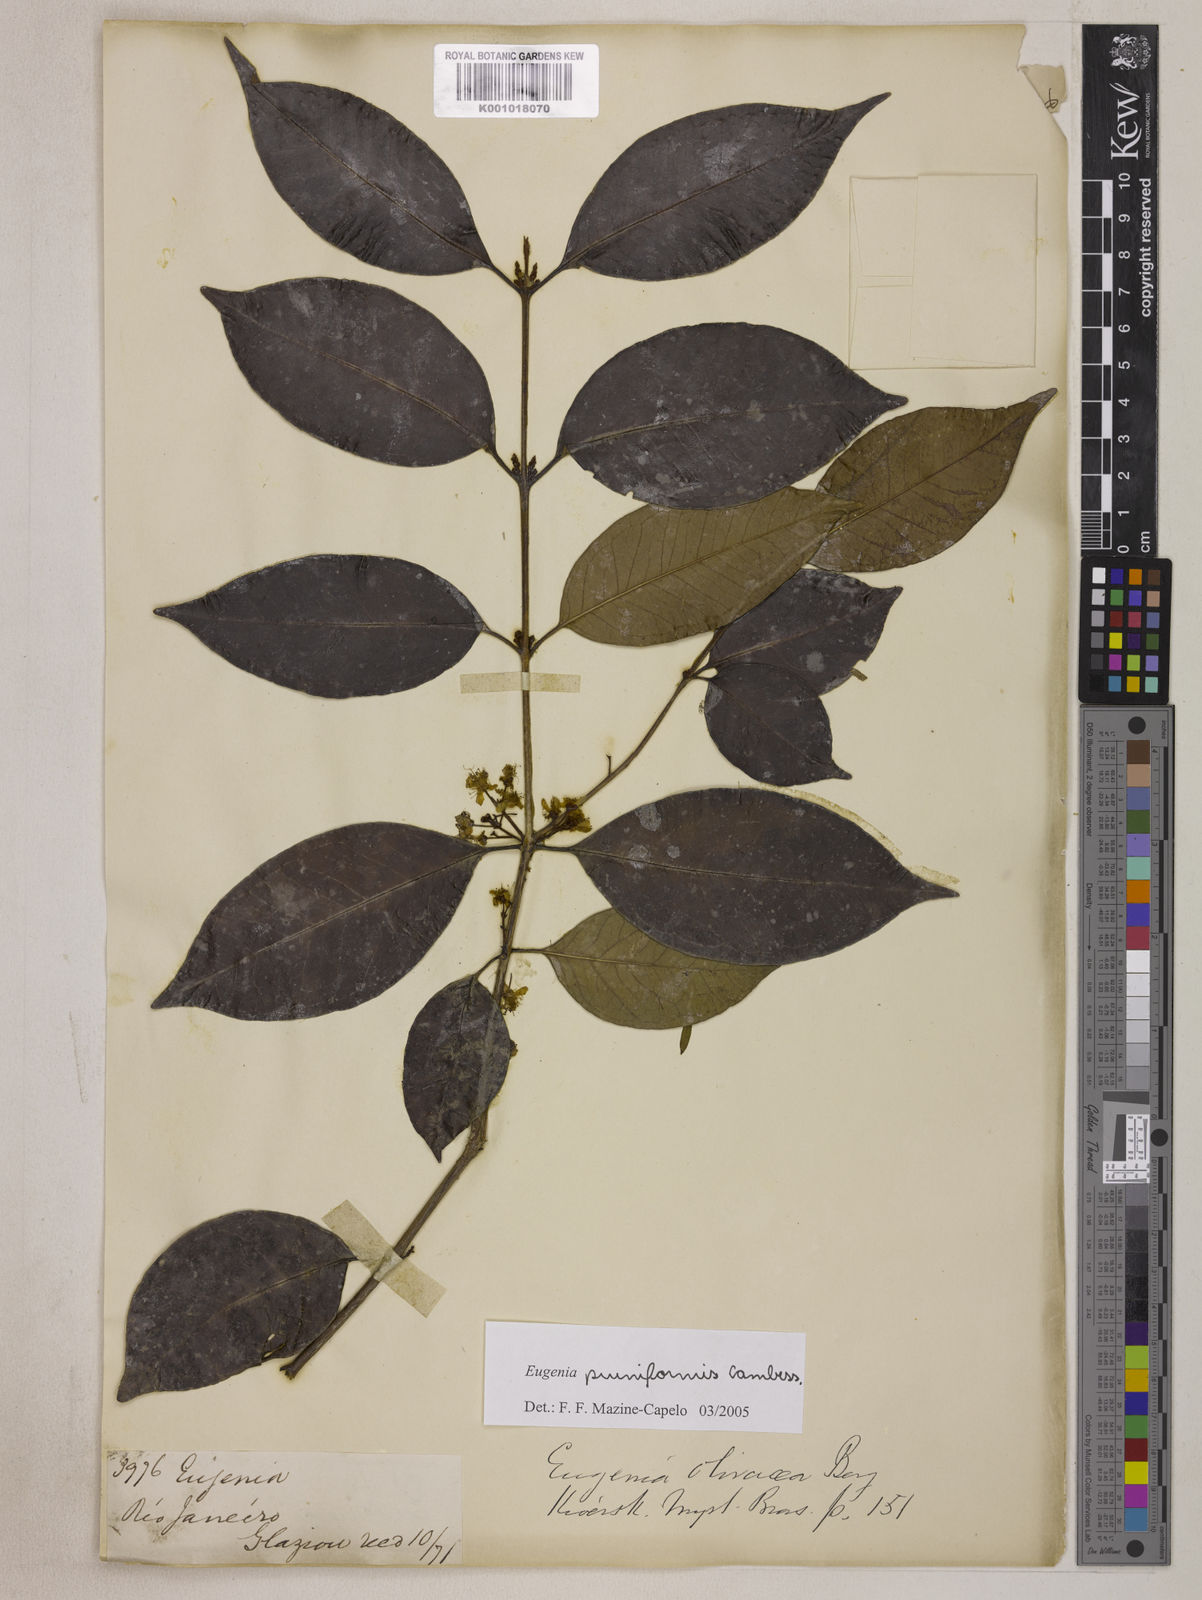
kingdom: Plantae
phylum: Tracheophyta
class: Magnoliopsida
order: Myrtales
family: Myrtaceae
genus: Eugenia
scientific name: Eugenia pruniformis
